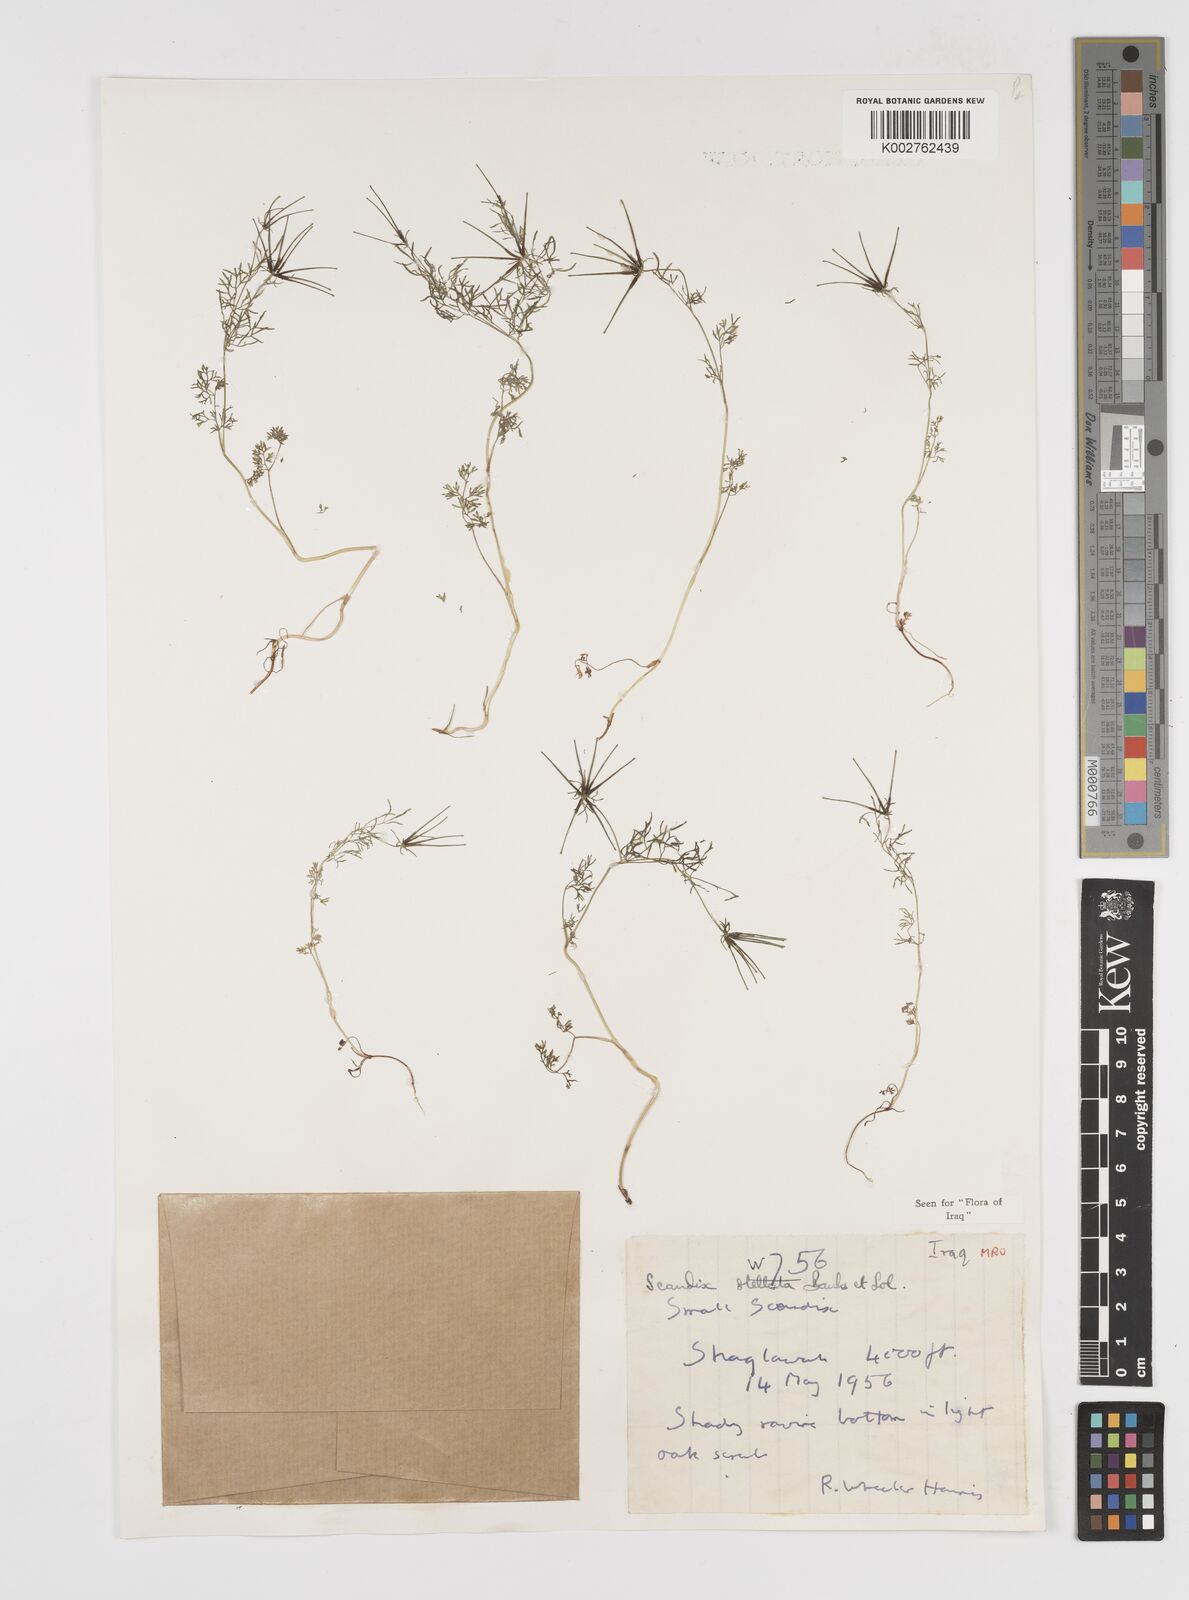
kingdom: Plantae
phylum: Tracheophyta
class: Magnoliopsida
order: Apiales
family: Apiaceae
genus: Scandix
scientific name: Scandix stellata
